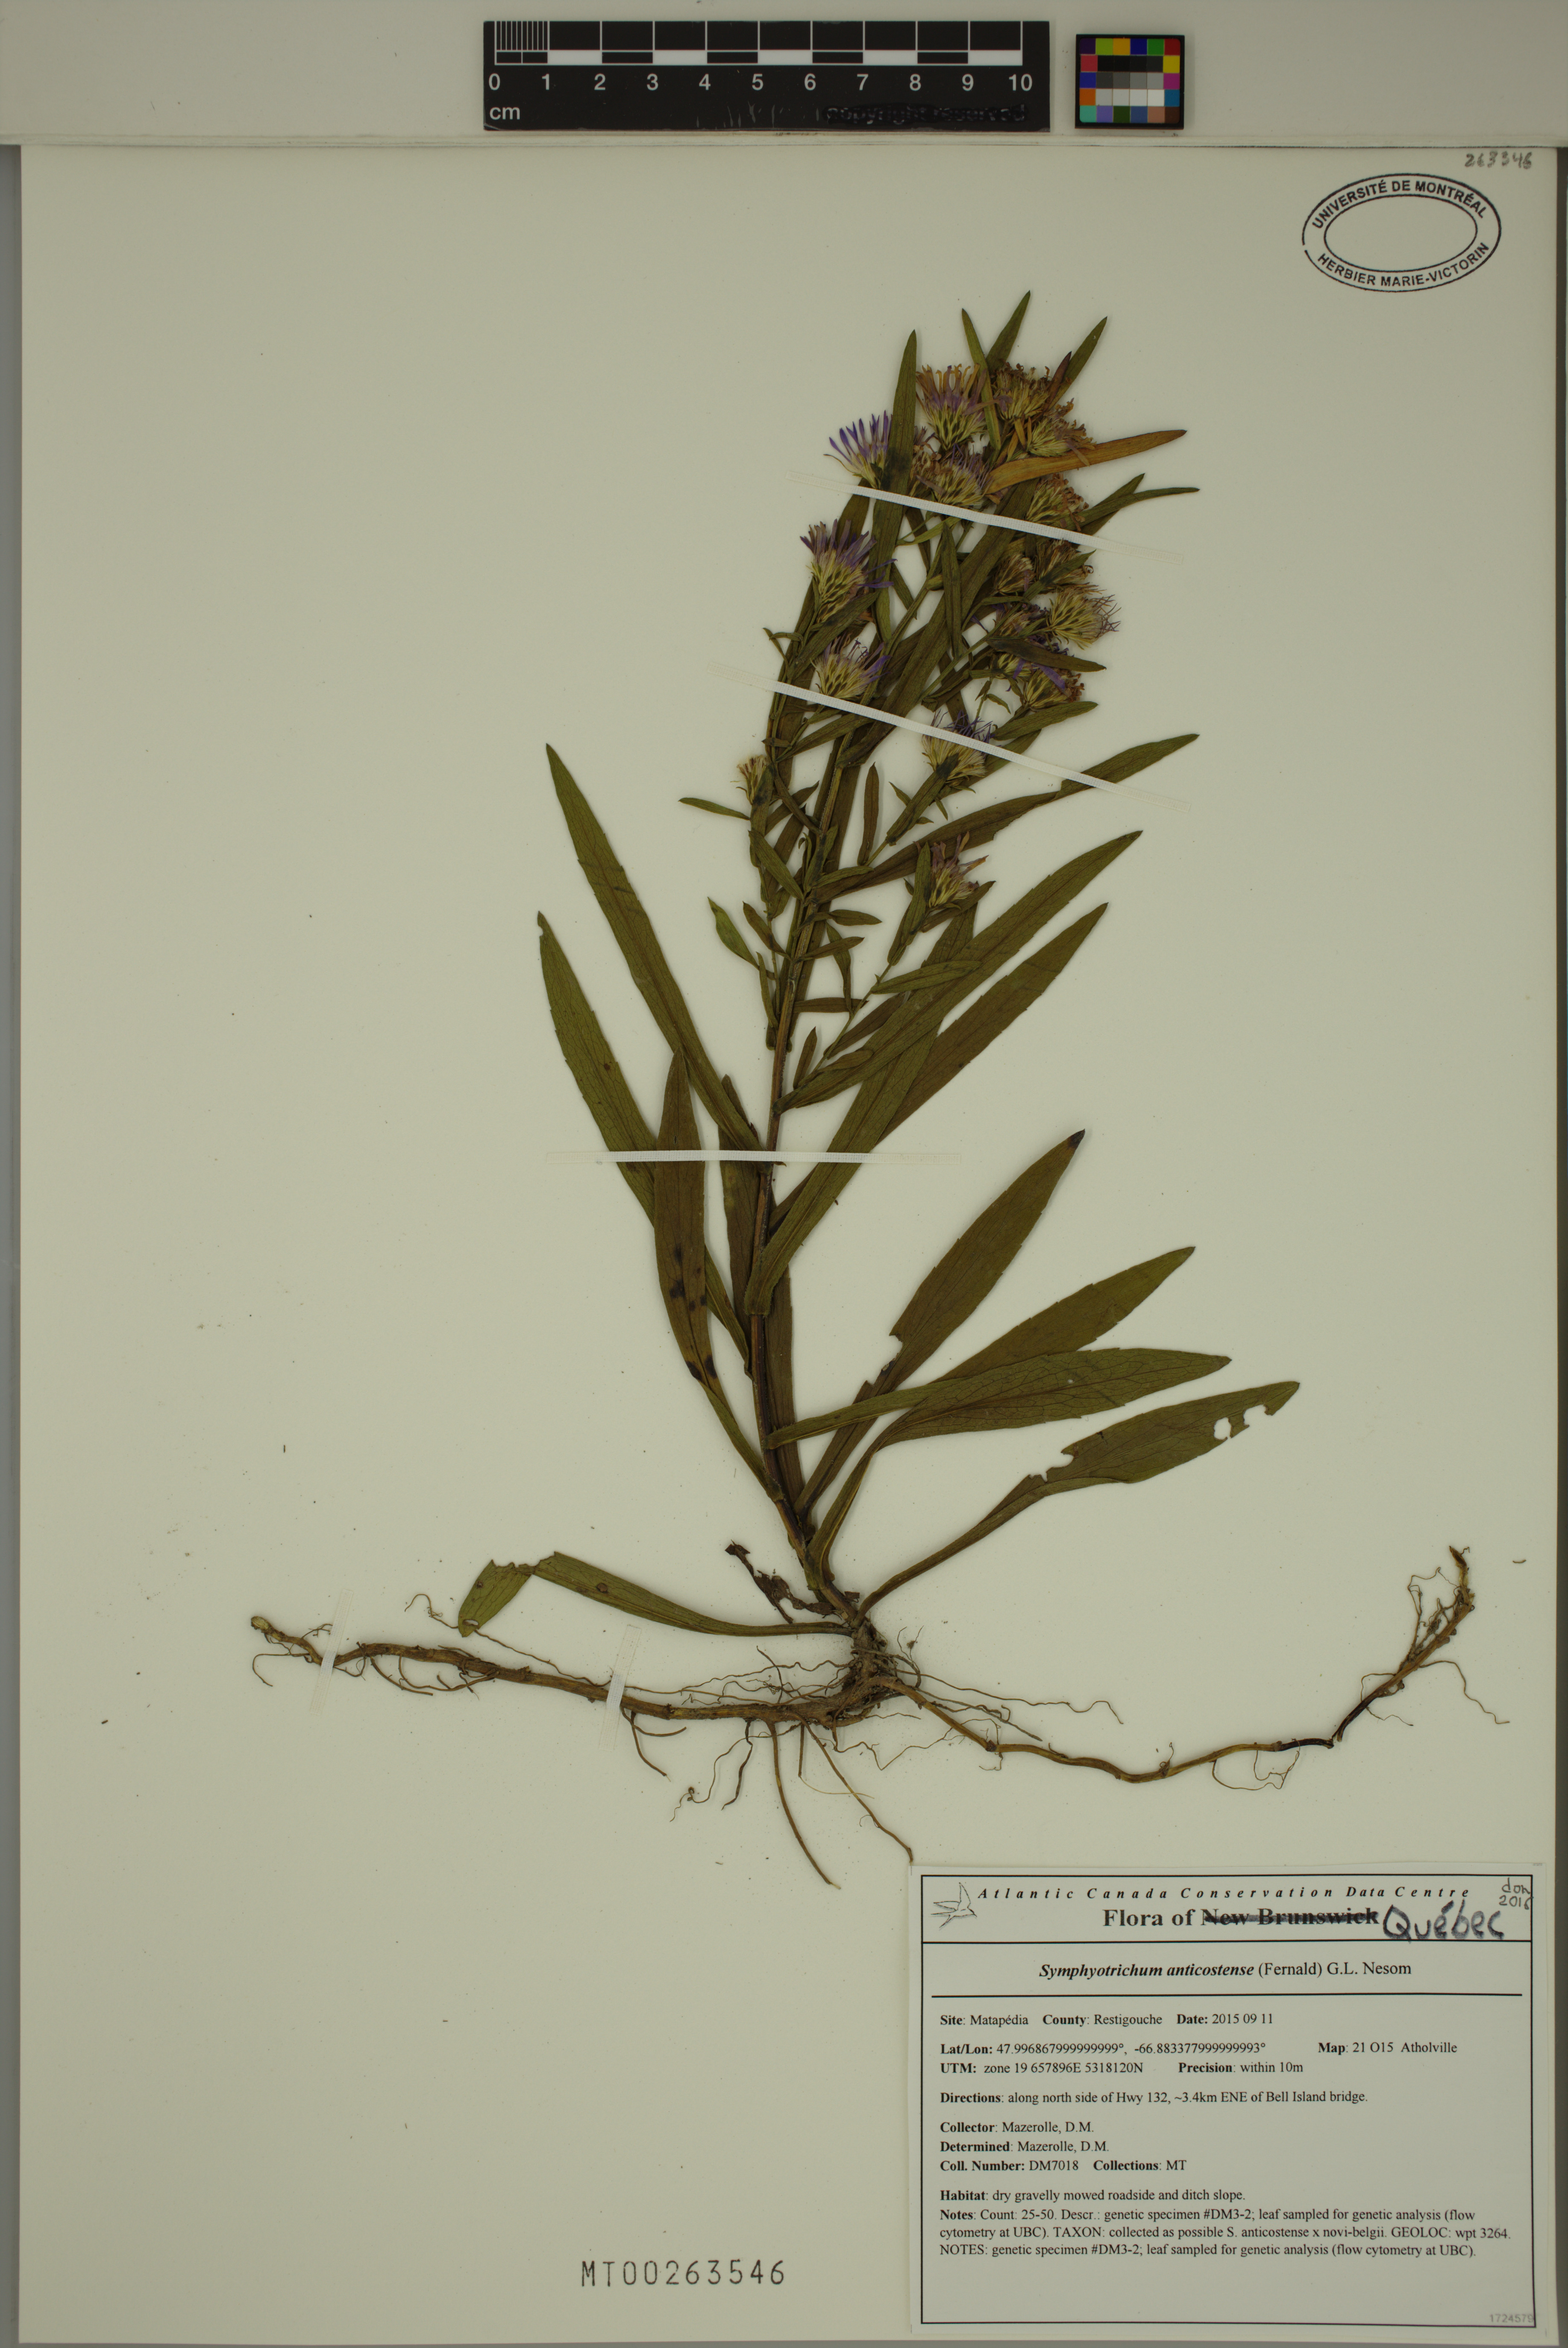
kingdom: Plantae
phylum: Tracheophyta
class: Magnoliopsida
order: Asterales
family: Asteraceae
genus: Symphyotrichum
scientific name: Symphyotrichum anticostense
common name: Anticosti island aster
